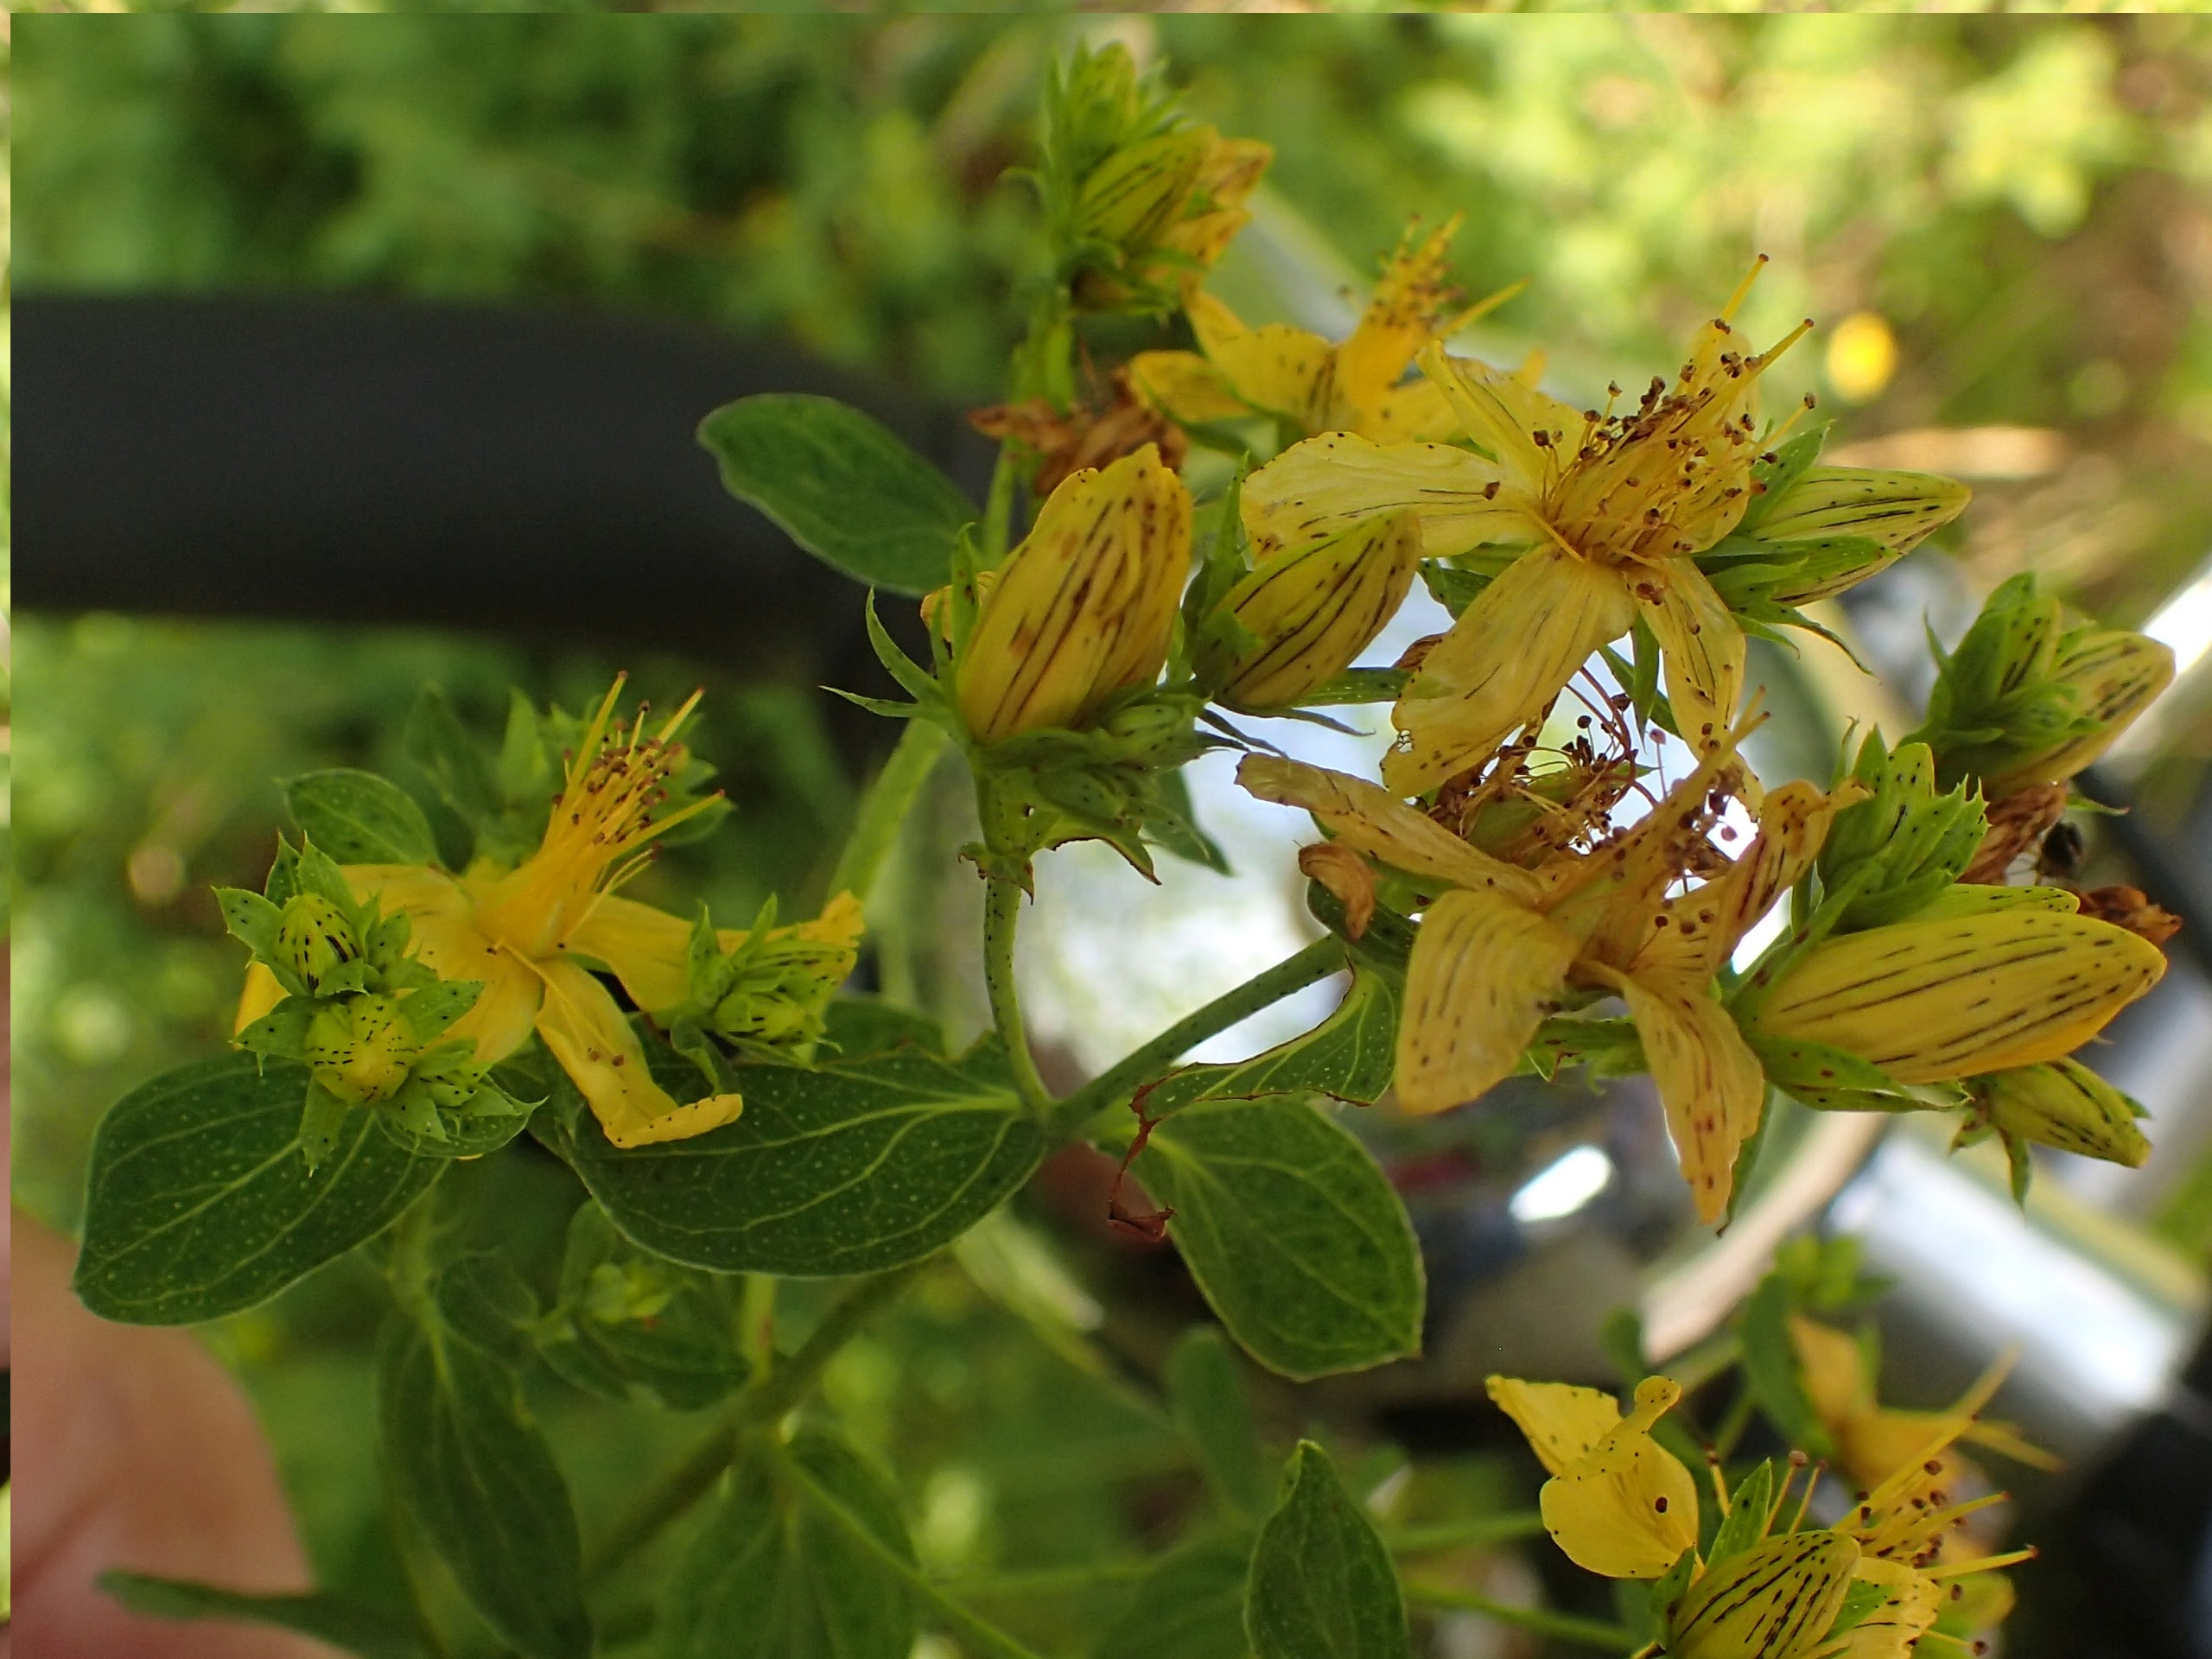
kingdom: Plantae
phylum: Tracheophyta
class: Magnoliopsida
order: Malpighiales
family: Hypericaceae
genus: Hypericum
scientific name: Hypericum perforatum
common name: Prikbladet perikon
